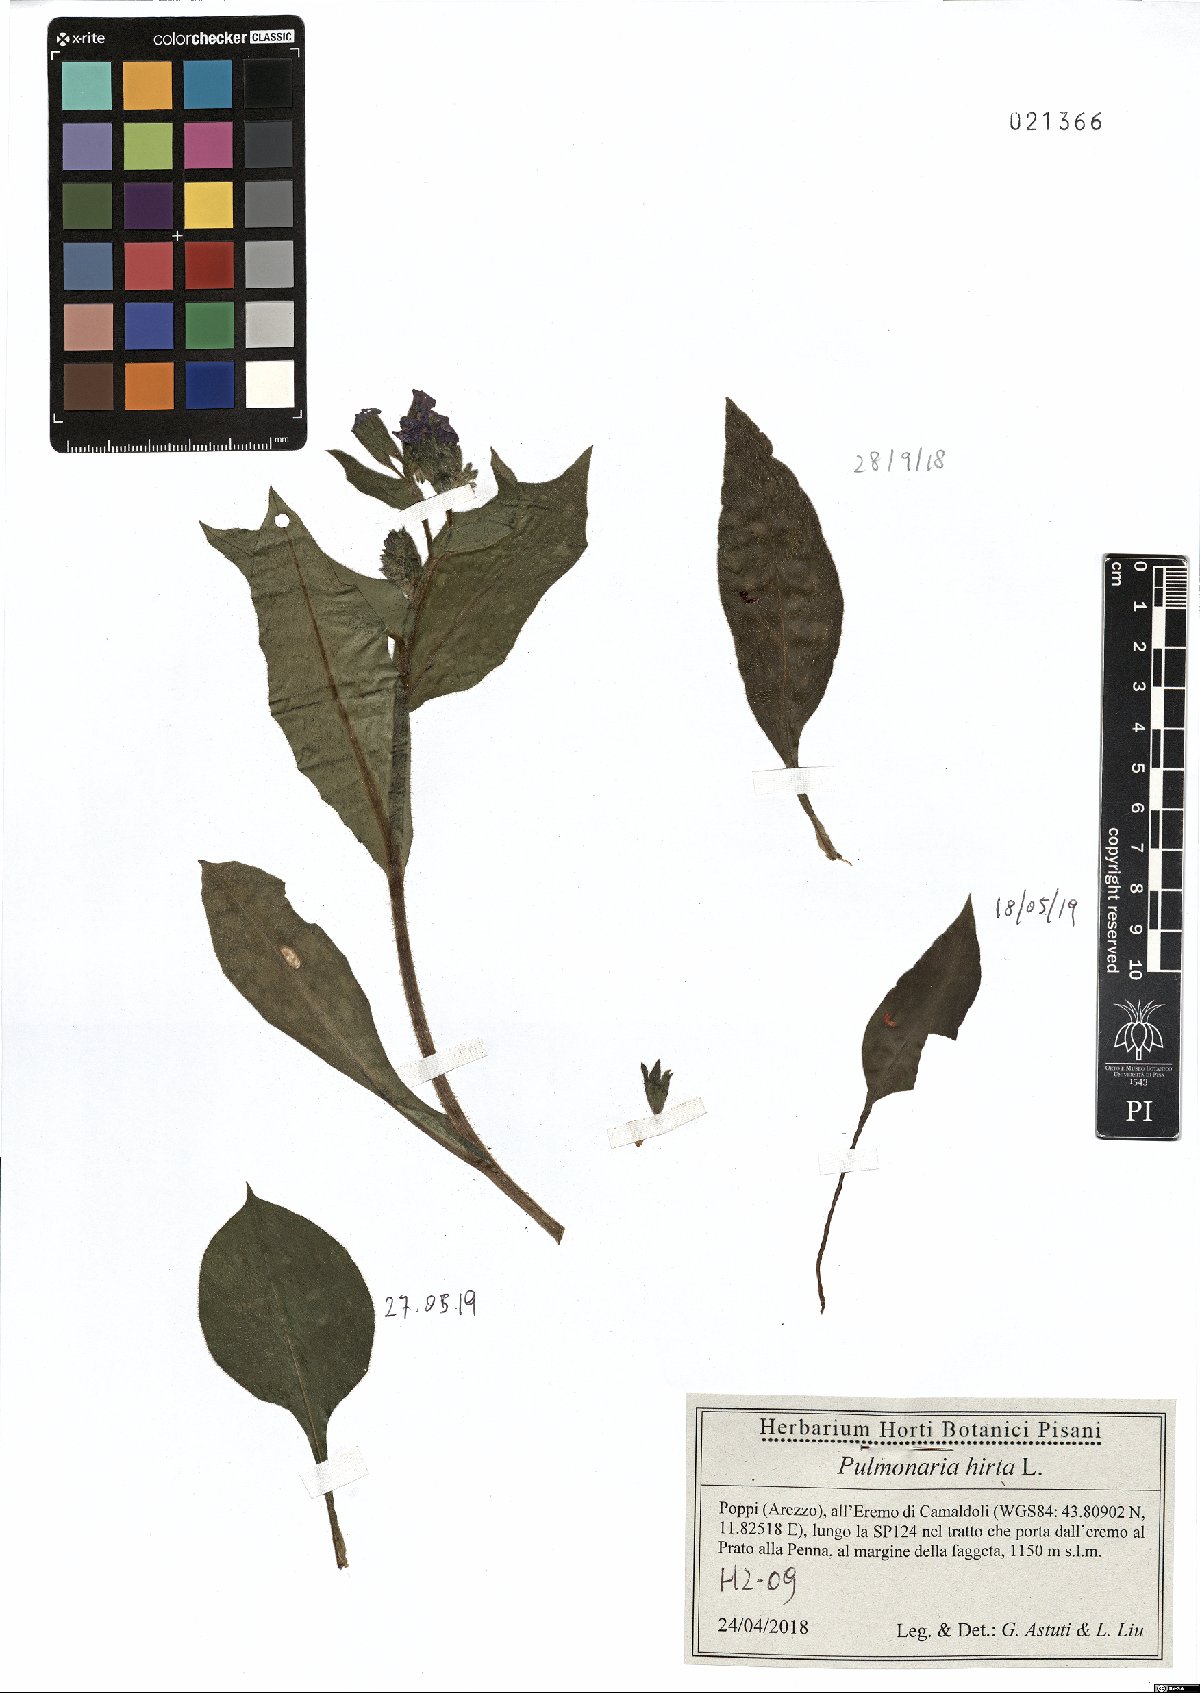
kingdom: Plantae
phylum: Tracheophyta
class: Magnoliopsida
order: Boraginales
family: Boraginaceae
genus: Pulmonaria
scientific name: Pulmonaria hirta
